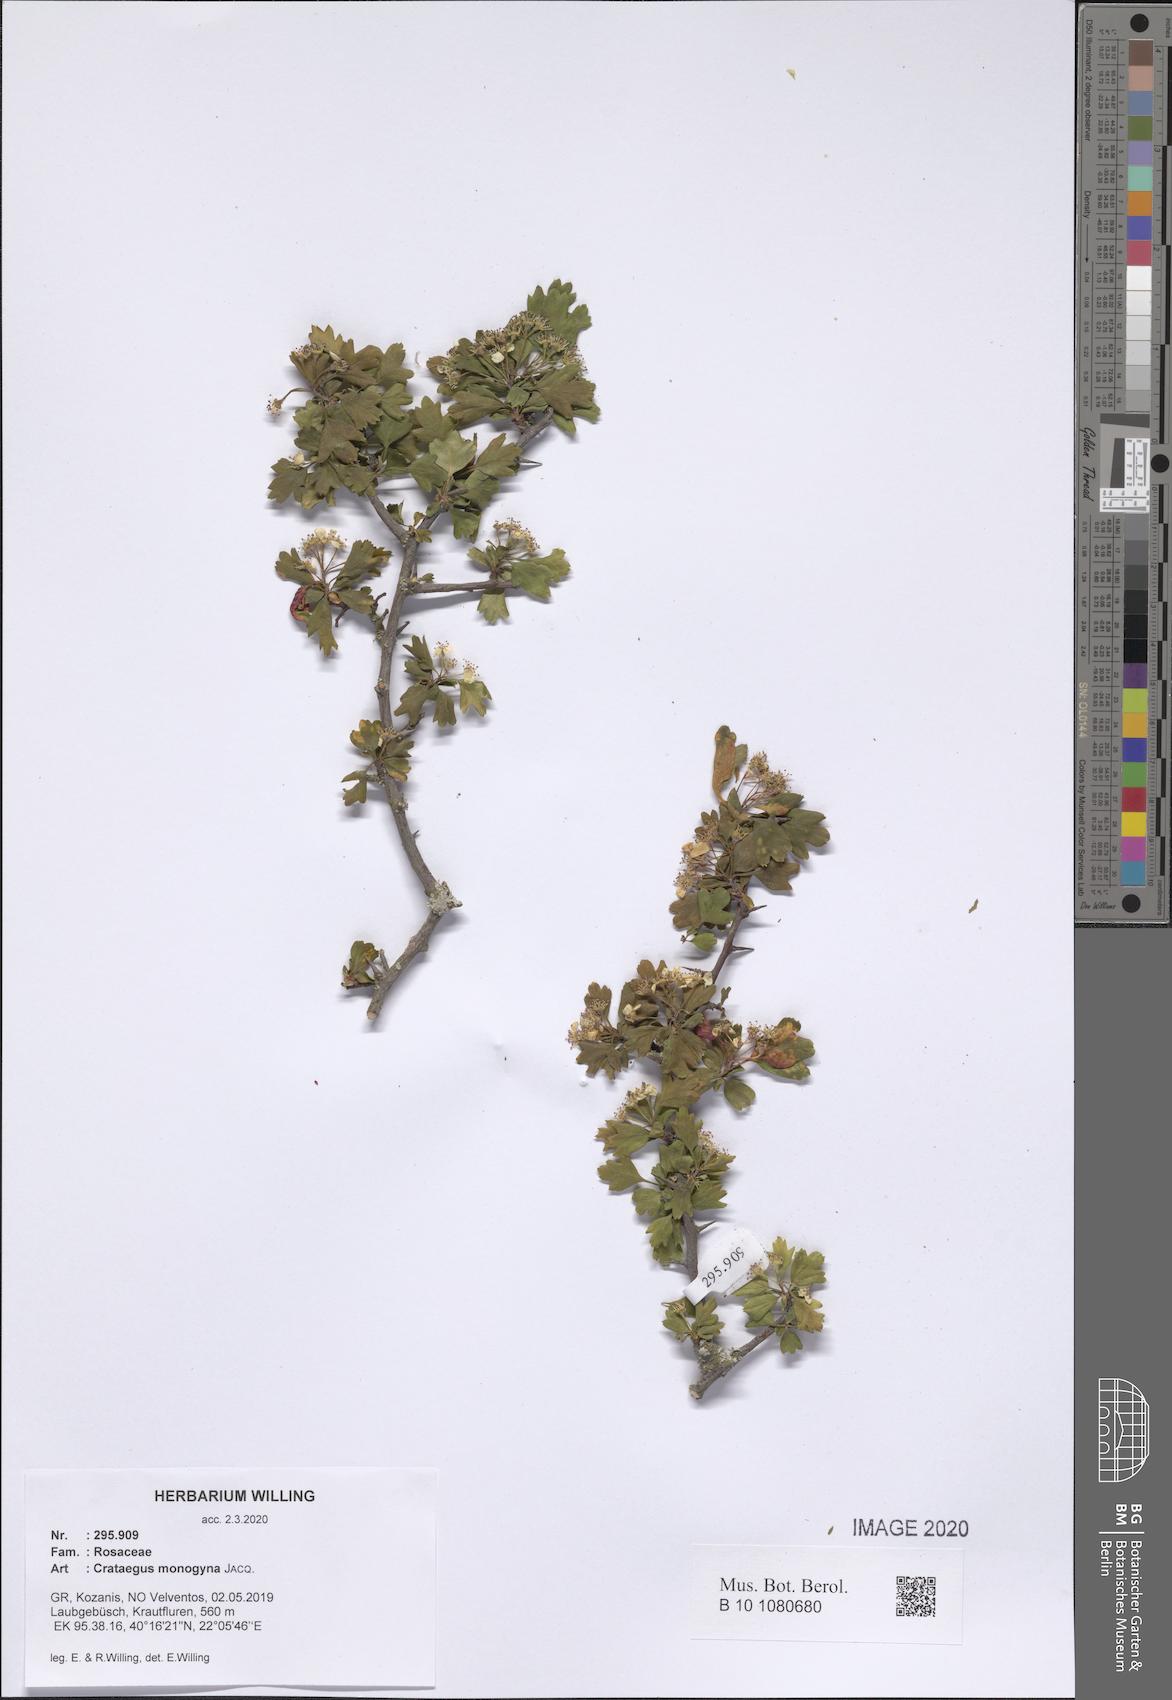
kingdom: Plantae
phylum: Tracheophyta
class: Magnoliopsida
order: Rosales
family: Rosaceae
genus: Crataegus
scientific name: Crataegus monogyna
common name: Hawthorn
